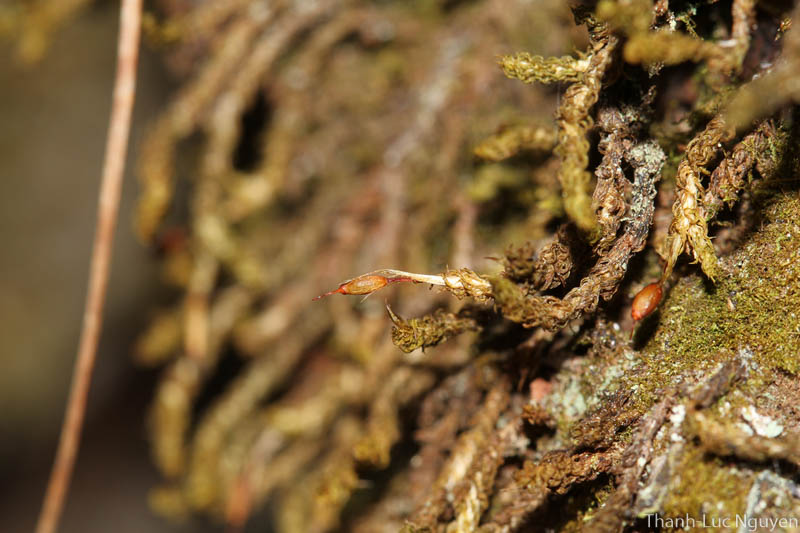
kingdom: Plantae
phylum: Bryophyta
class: Bryopsida
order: Dicranales
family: Calymperaceae
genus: Syrrhopodon
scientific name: Syrrhopodon
